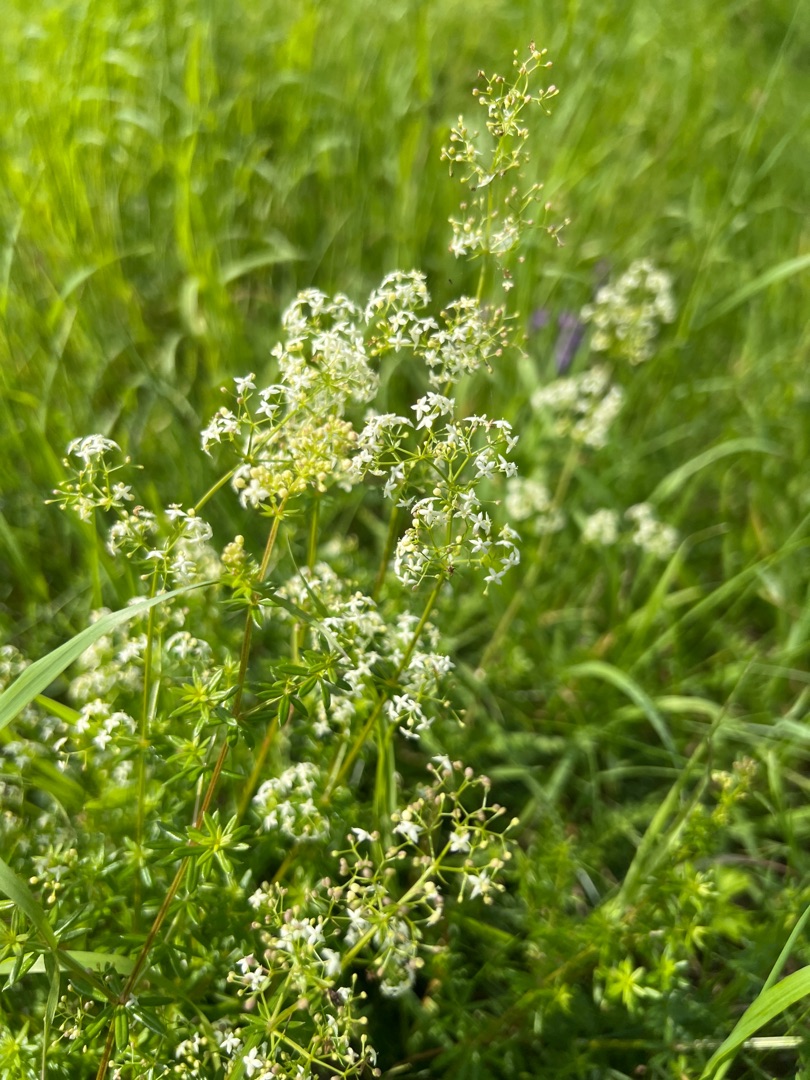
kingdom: Plantae
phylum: Tracheophyta
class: Magnoliopsida
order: Gentianales
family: Rubiaceae
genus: Galium
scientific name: Galium mollugo
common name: Hvid snerre
